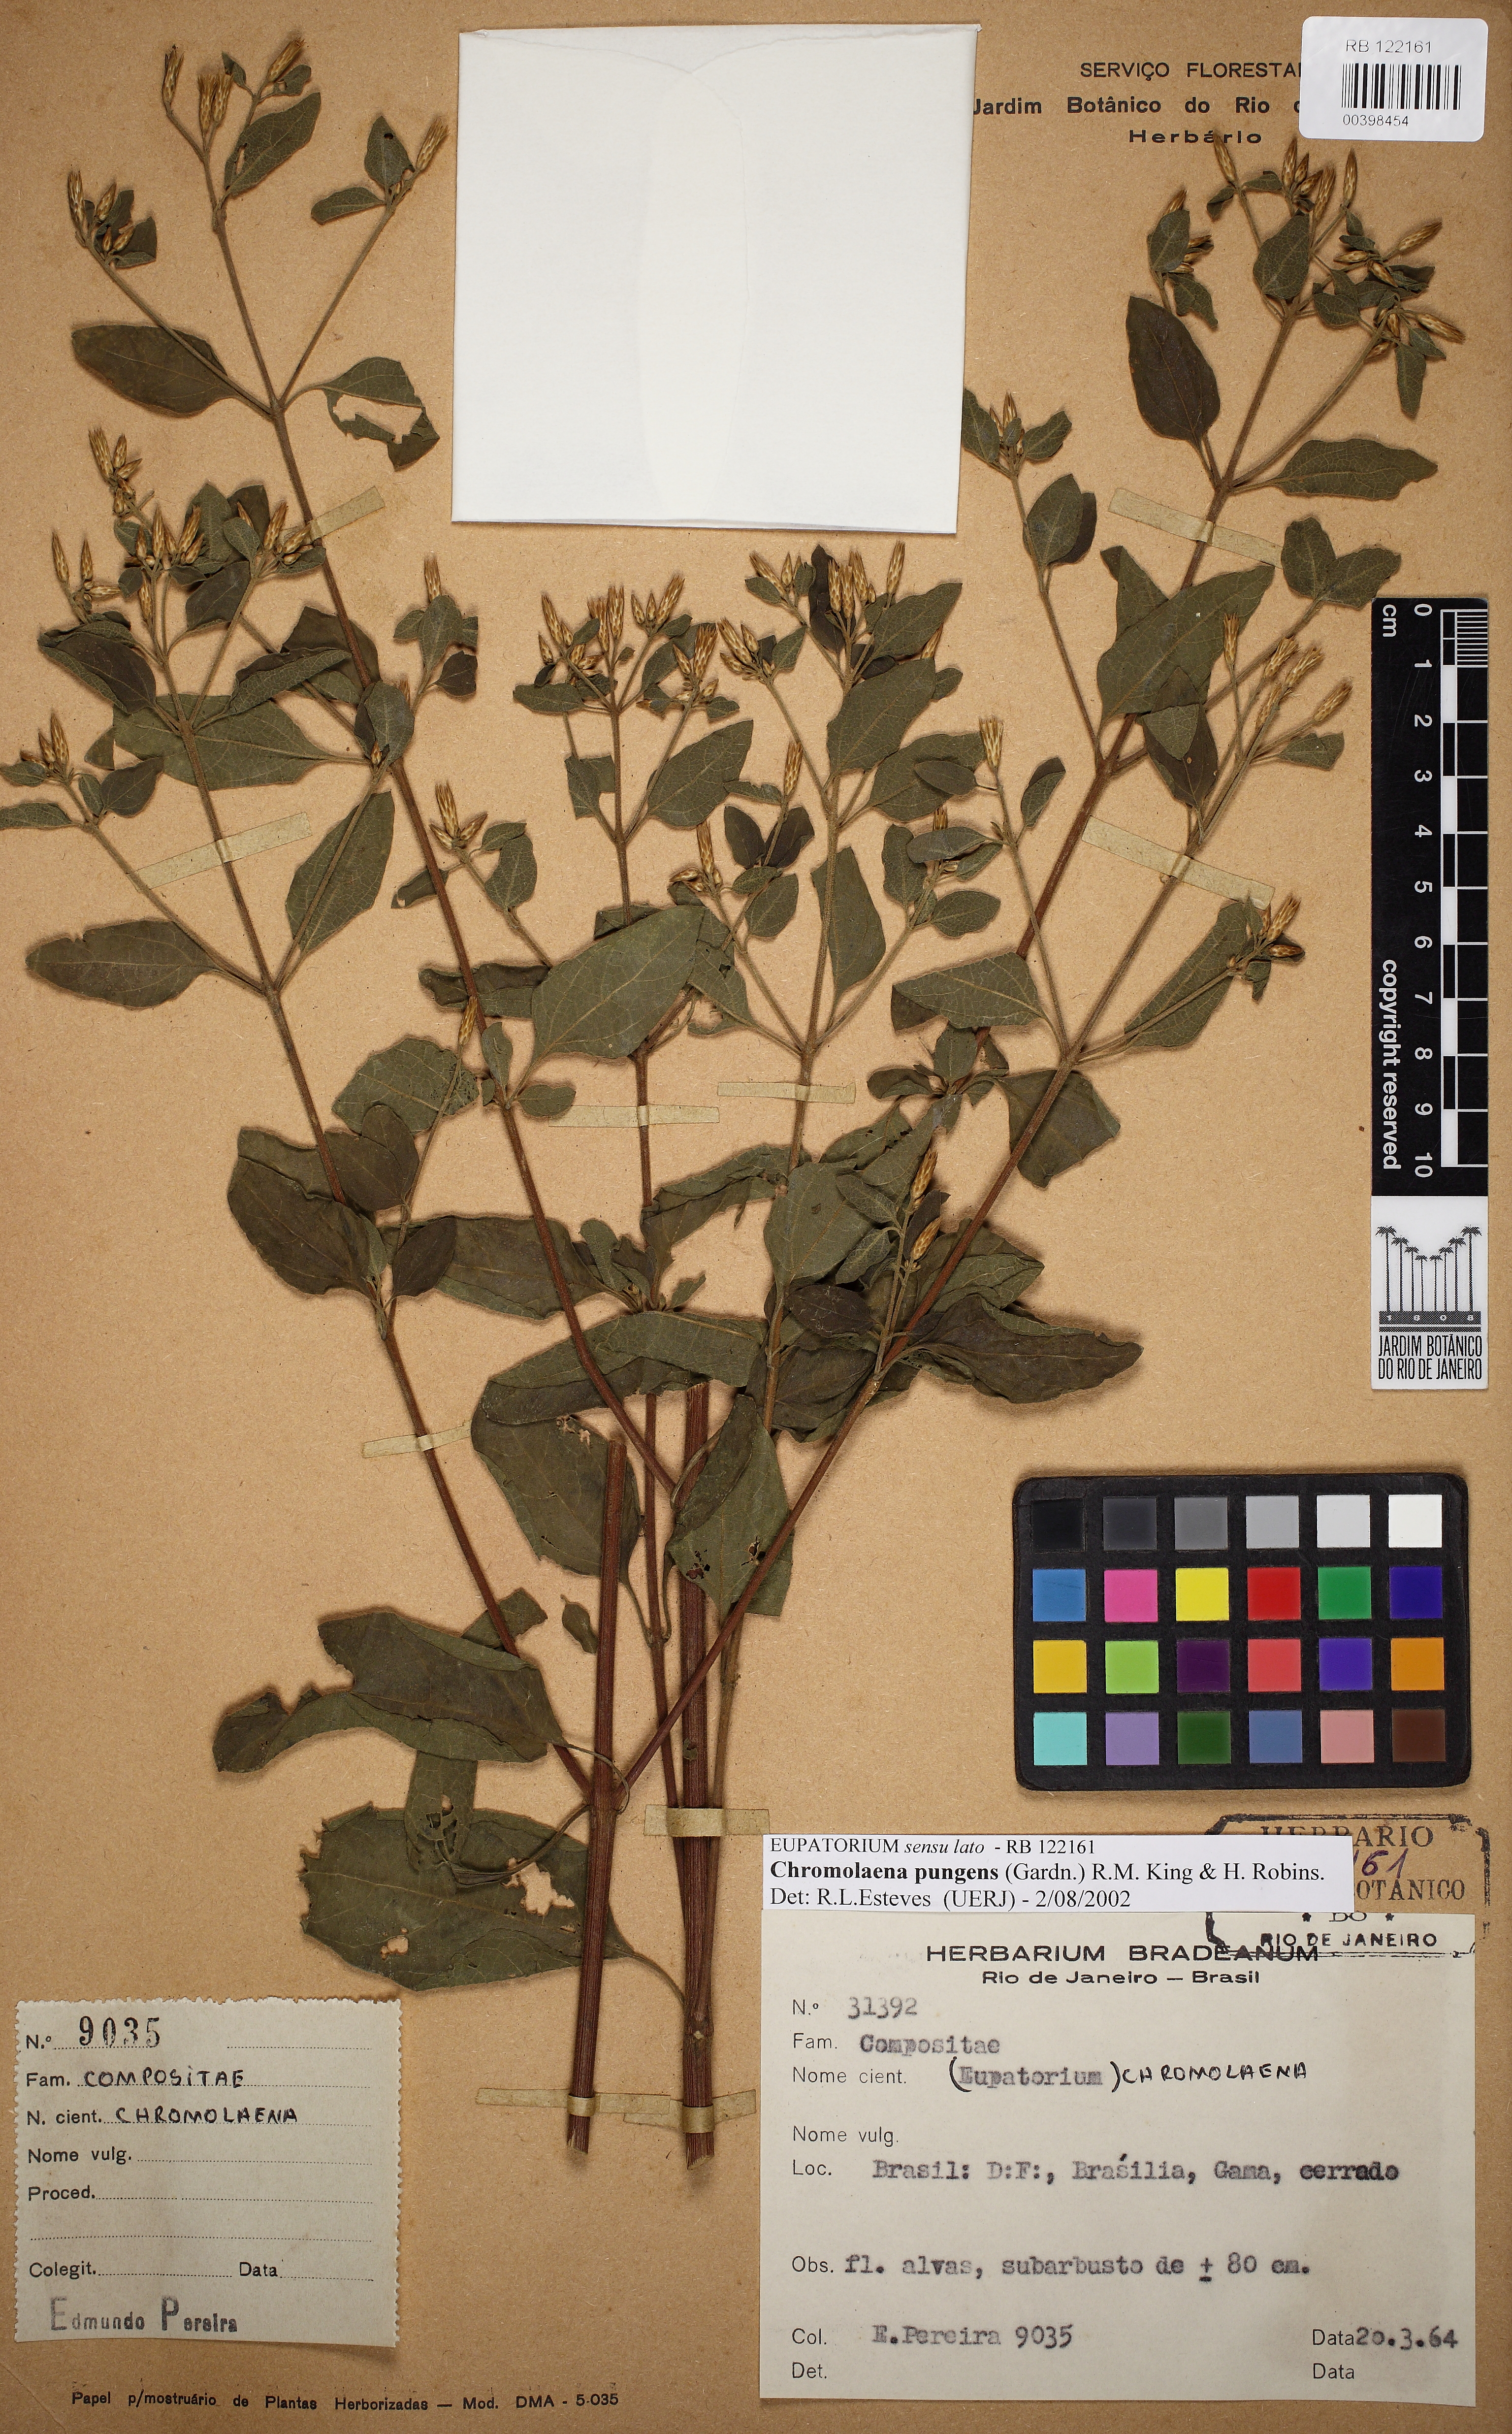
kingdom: Plantae
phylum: Tracheophyta
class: Magnoliopsida
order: Asterales
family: Asteraceae
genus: Chromolaena
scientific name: Chromolaena pungens
